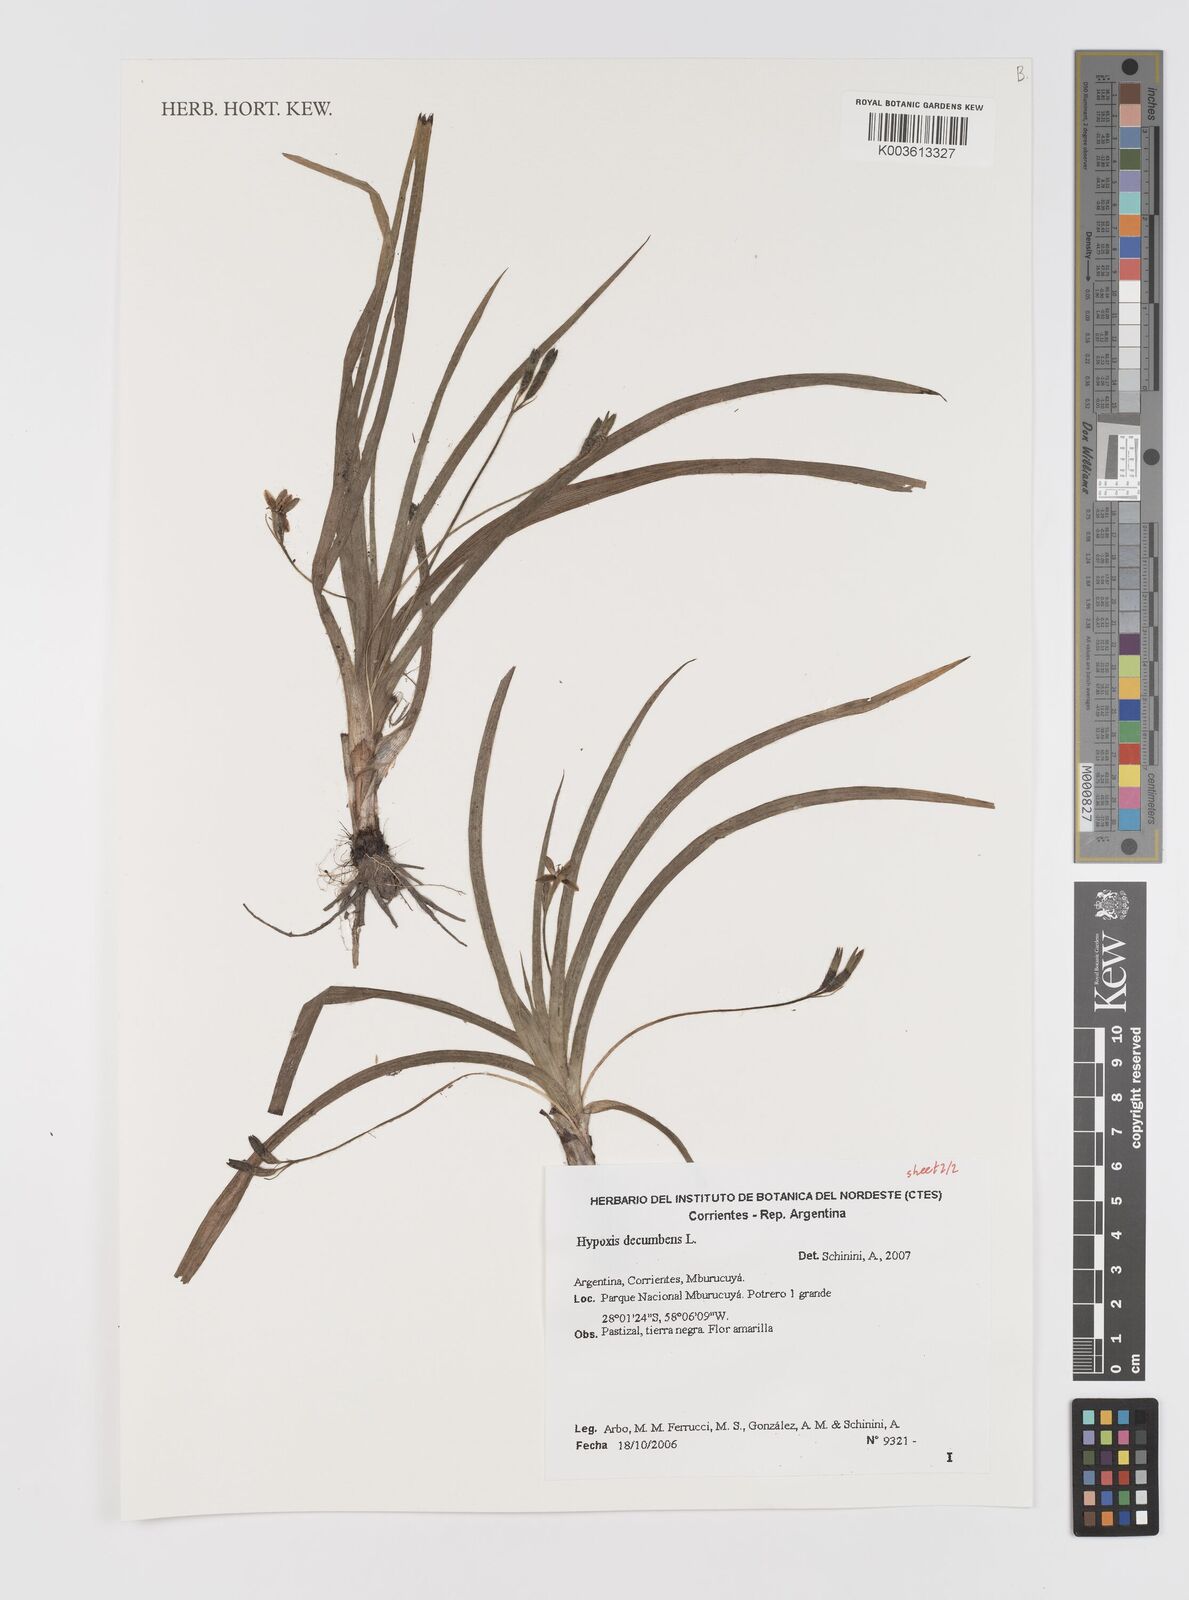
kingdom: Plantae
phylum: Tracheophyta
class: Liliopsida
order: Asparagales
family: Hypoxidaceae
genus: Hypoxis
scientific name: Hypoxis decumbens
